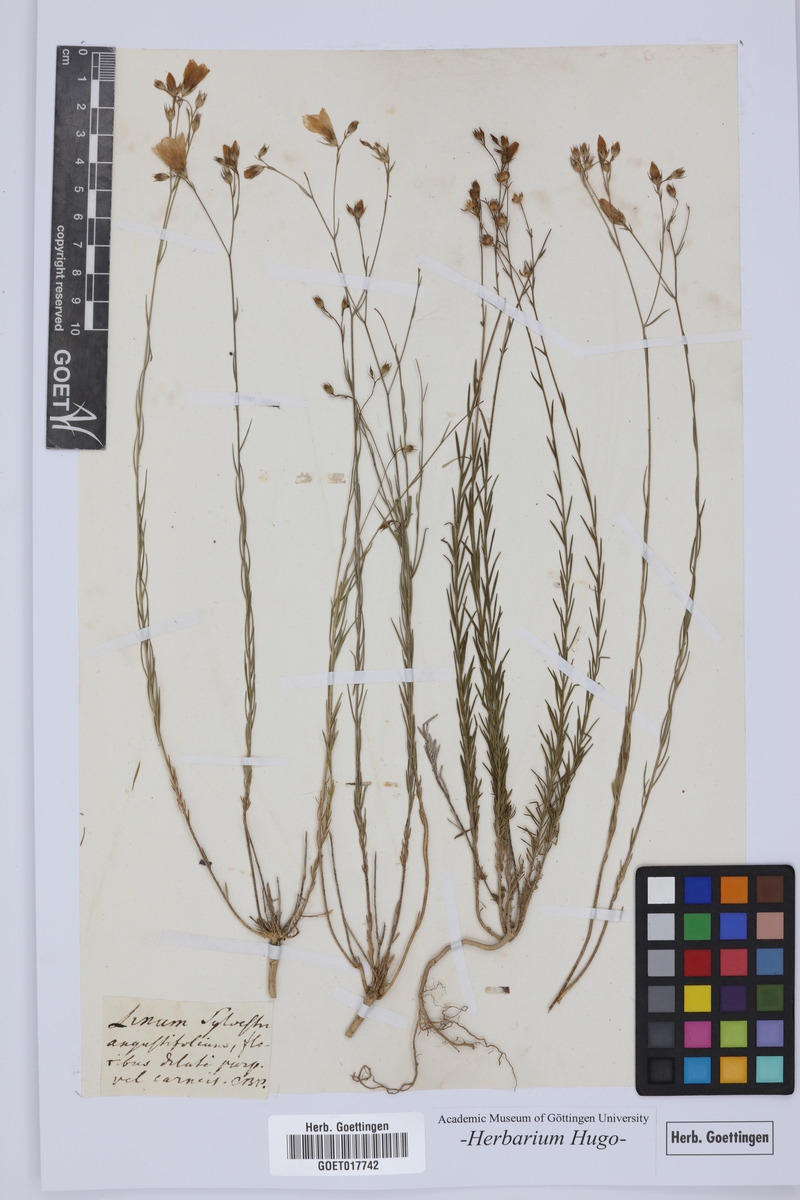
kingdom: Plantae
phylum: Tracheophyta
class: Magnoliopsida
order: Malpighiales
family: Linaceae
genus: Linum
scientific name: Linum tenuifolium
